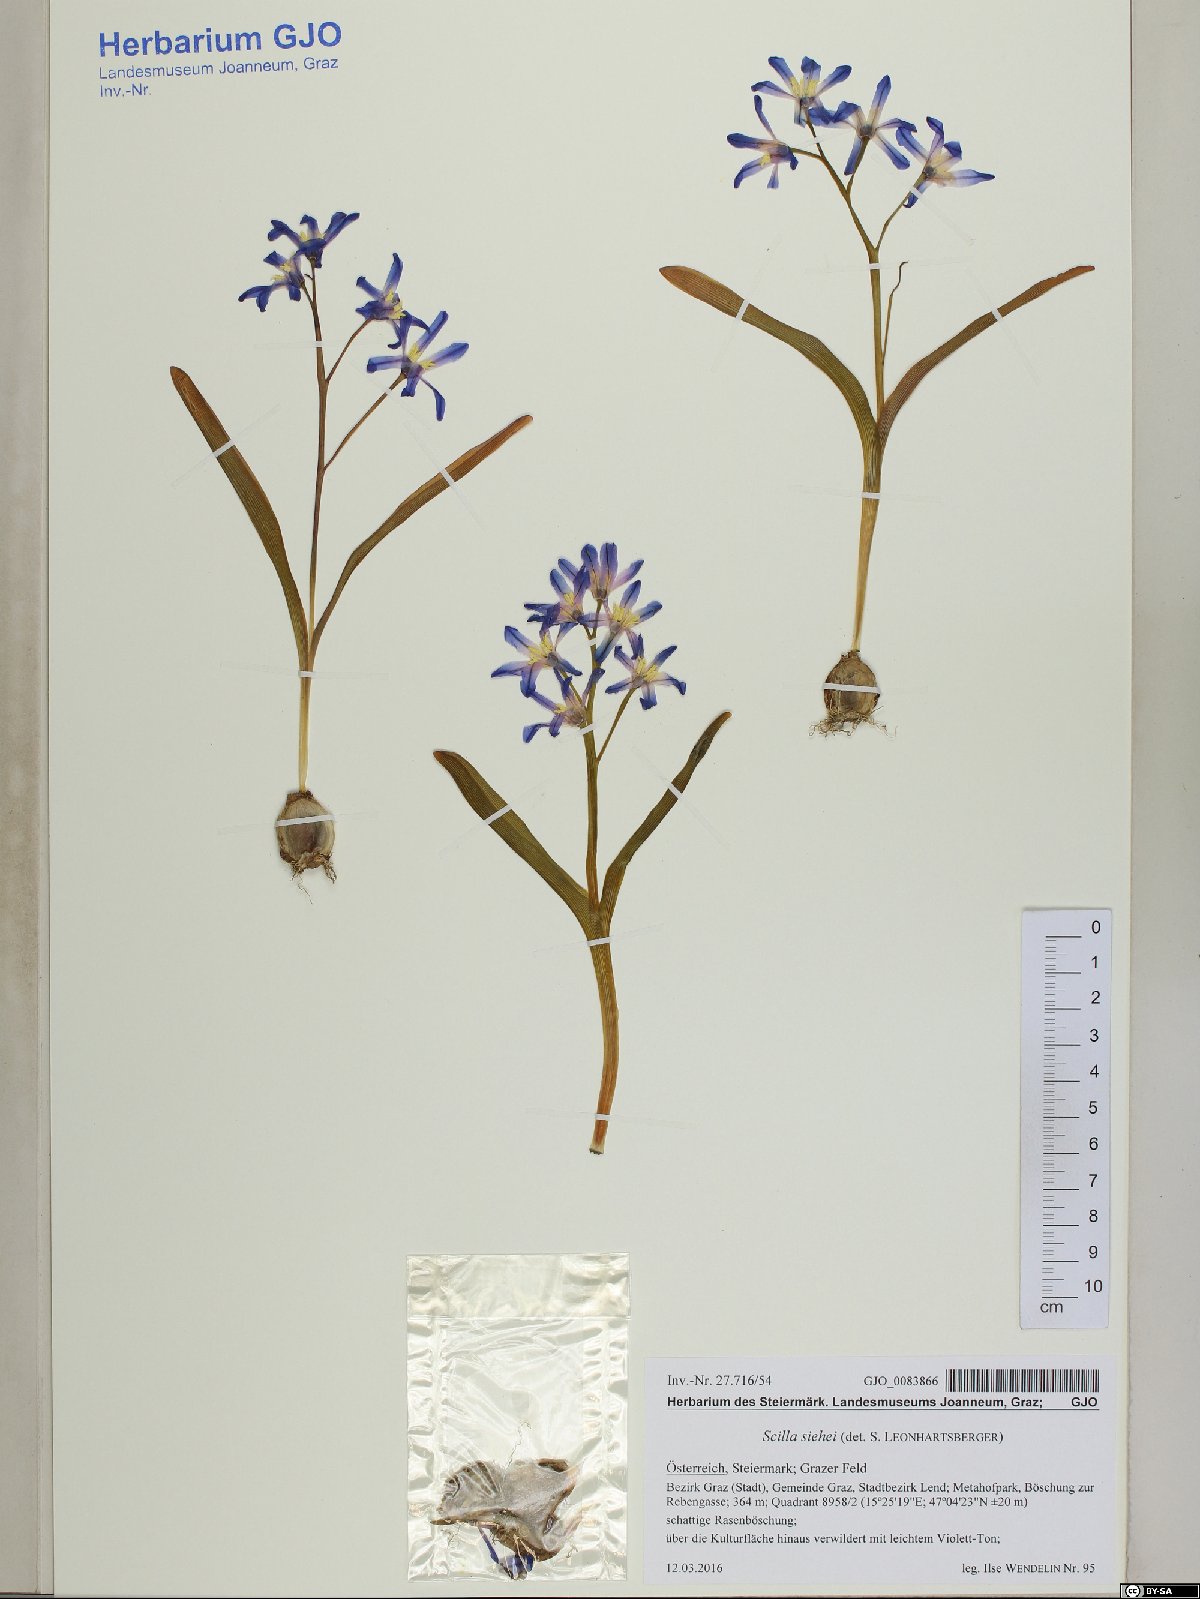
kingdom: Plantae
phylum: Tracheophyta
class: Liliopsida
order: Asparagales
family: Asparagaceae
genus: Scilla
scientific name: Scilla forbesii
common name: Glory-of-the-snow
